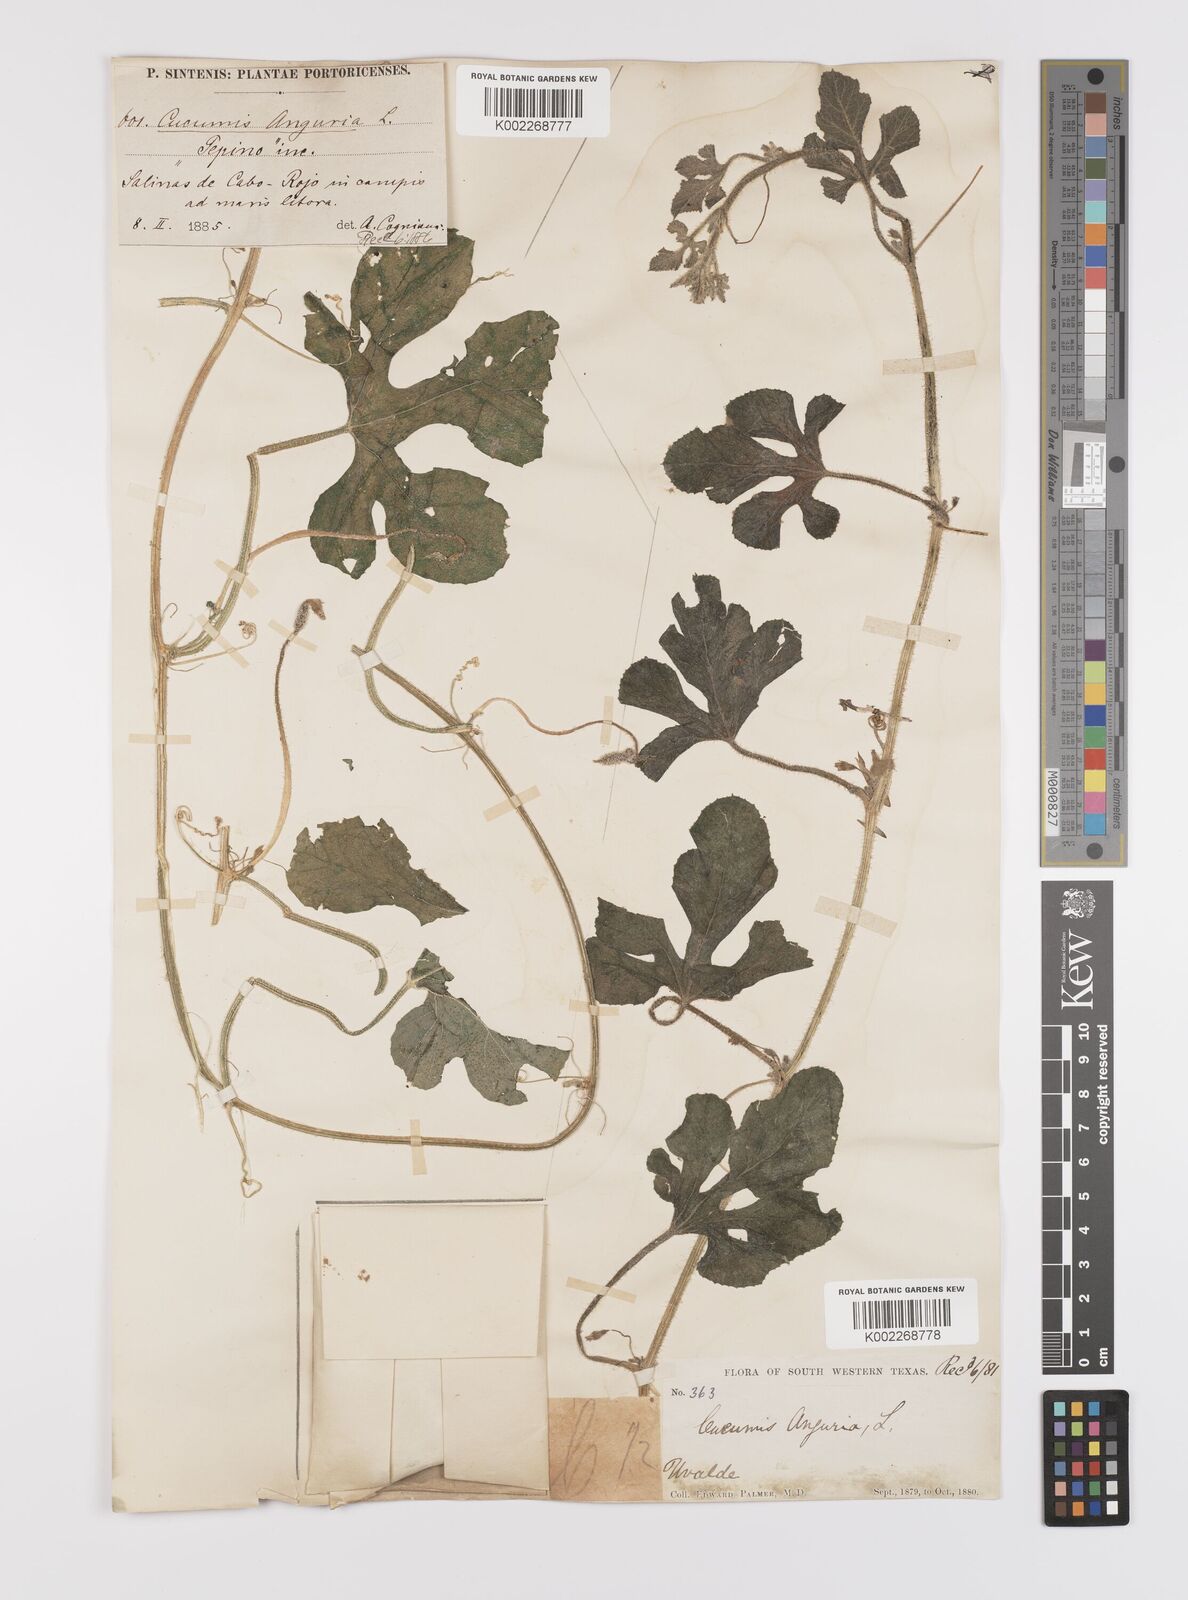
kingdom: Plantae
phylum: Tracheophyta
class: Magnoliopsida
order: Cucurbitales
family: Cucurbitaceae
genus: Cucumis
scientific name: Cucumis anguria
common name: West indian gherkin
